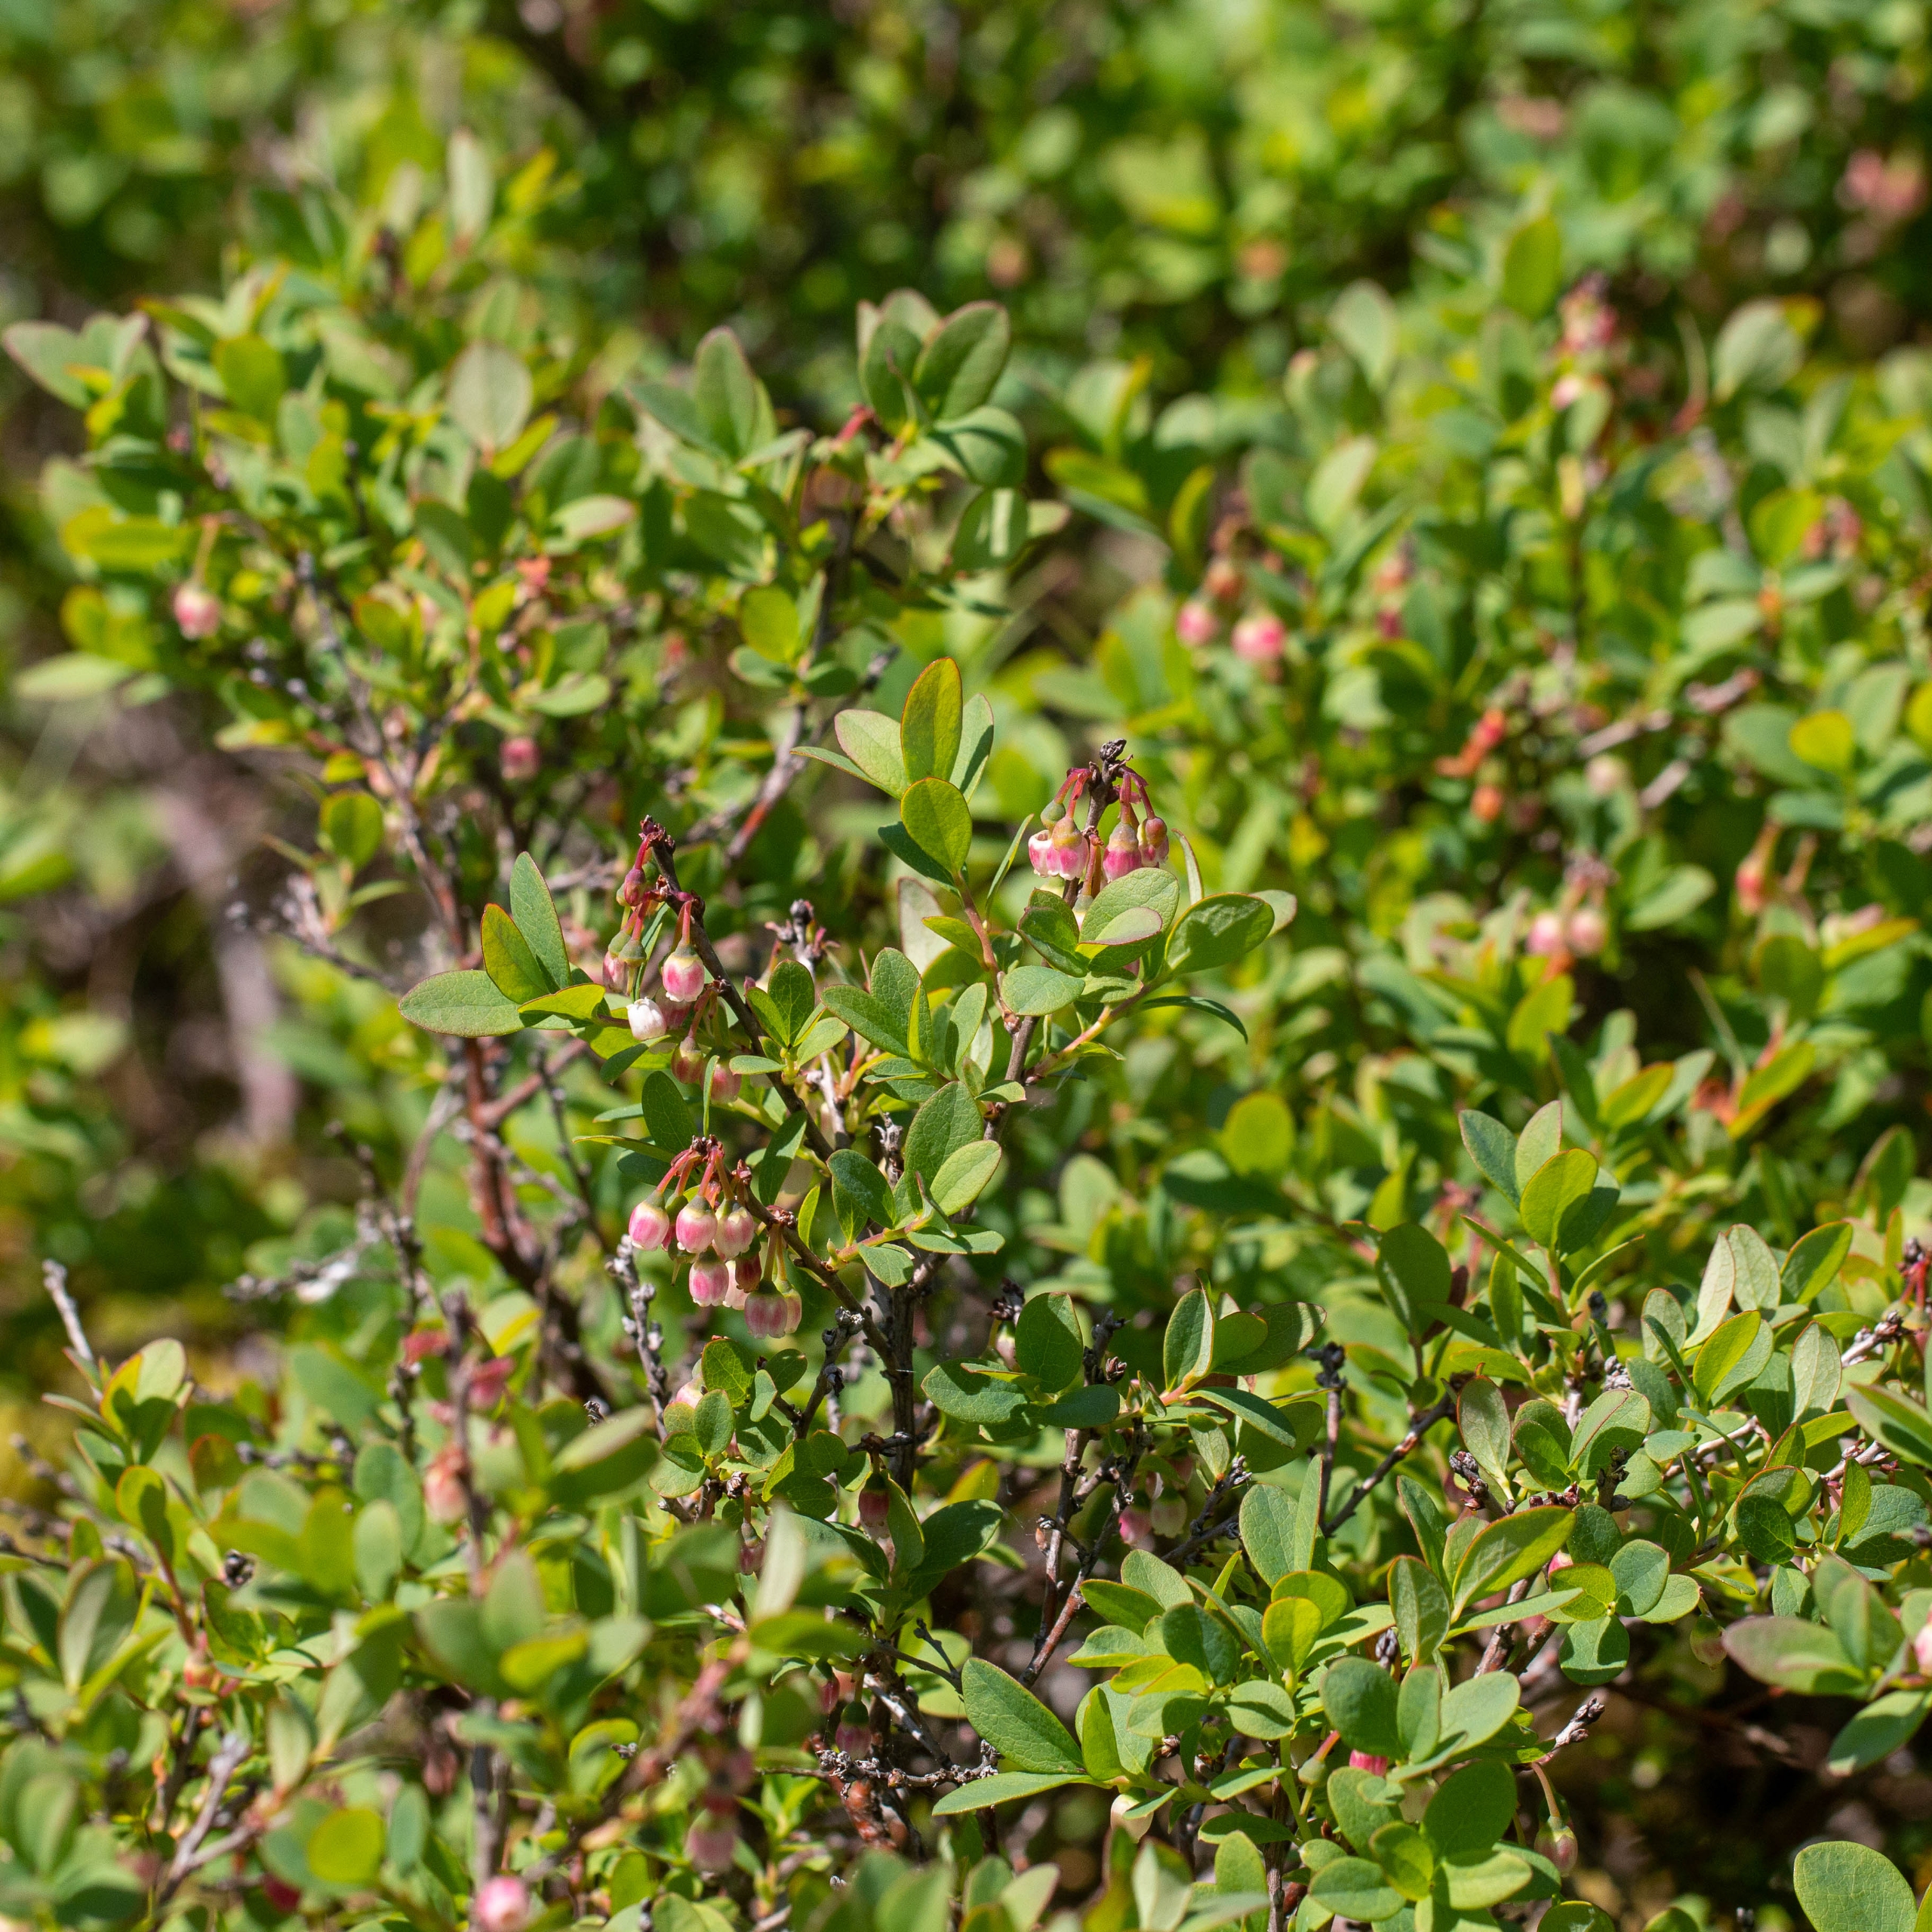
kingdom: Plantae
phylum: Tracheophyta
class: Magnoliopsida
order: Ericales
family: Ericaceae
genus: Vaccinium
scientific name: Vaccinium uliginosum
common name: Mose-bølle
